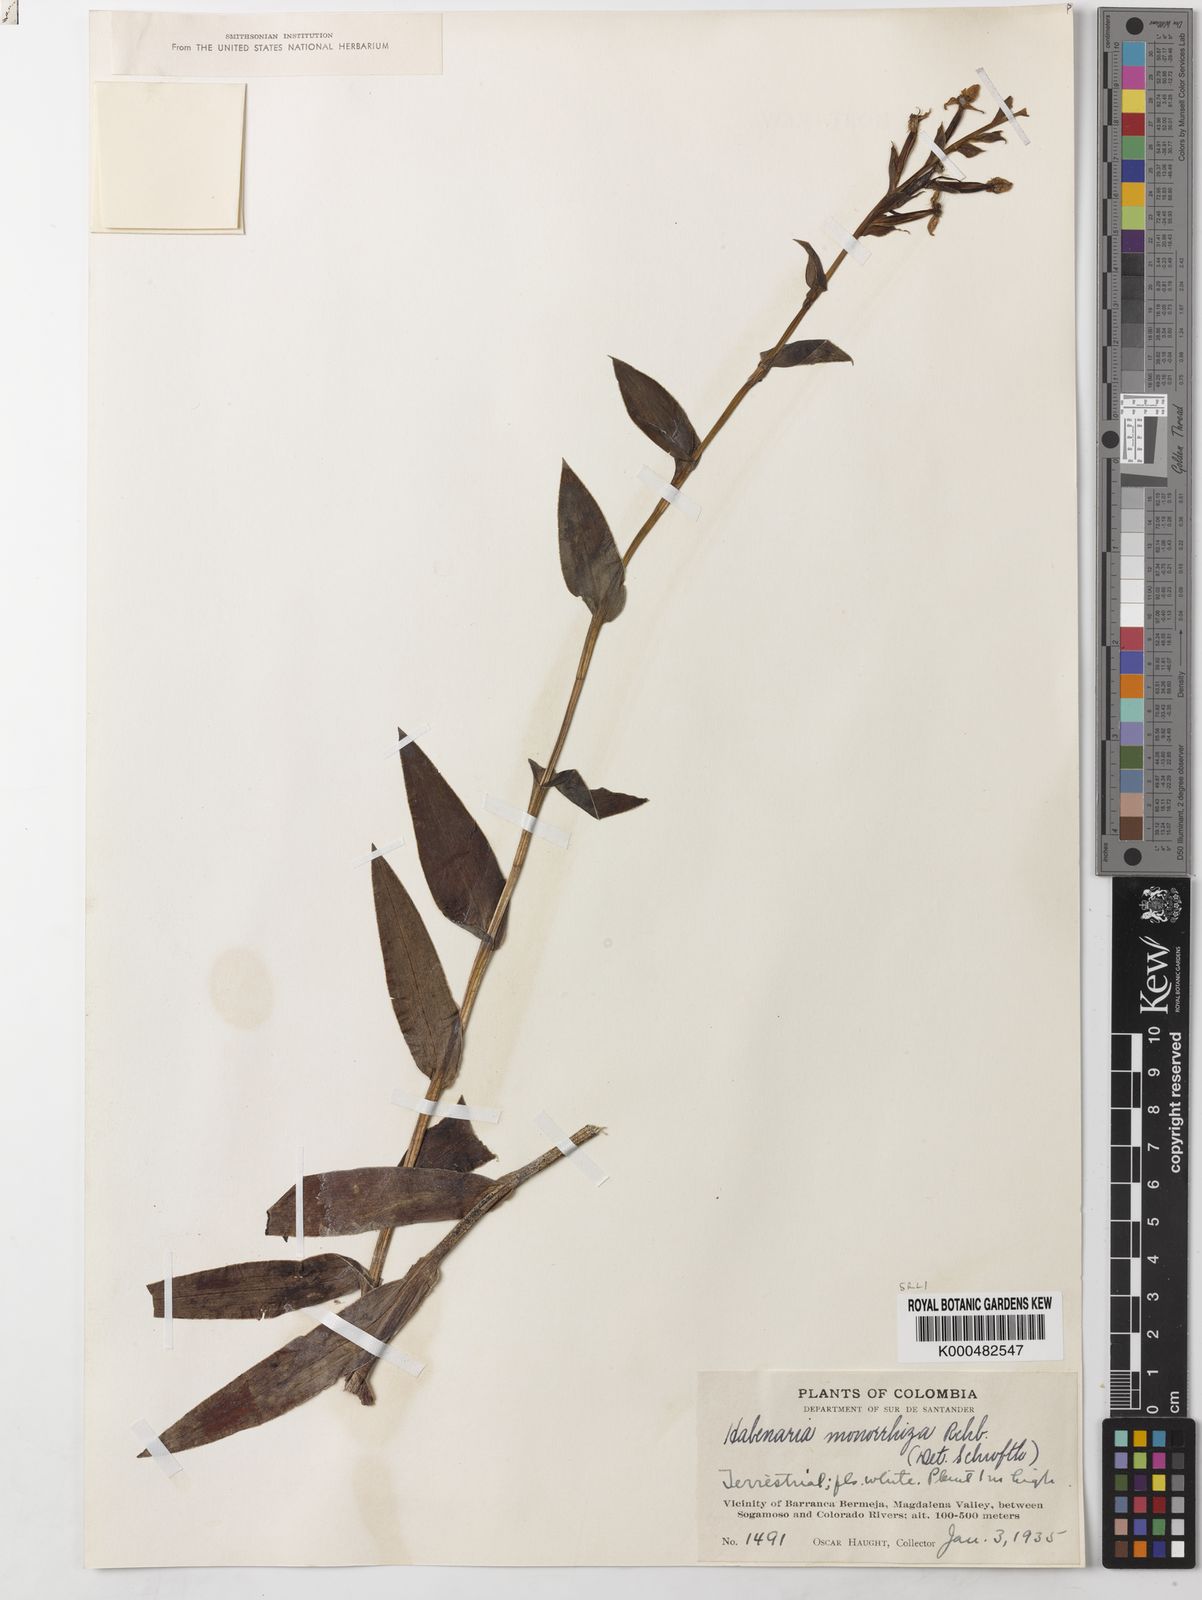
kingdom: Plantae
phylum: Tracheophyta
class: Liliopsida
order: Asparagales
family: Orchidaceae
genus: Habenaria
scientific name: Habenaria monorrhiza
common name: Tropical bog orchid
